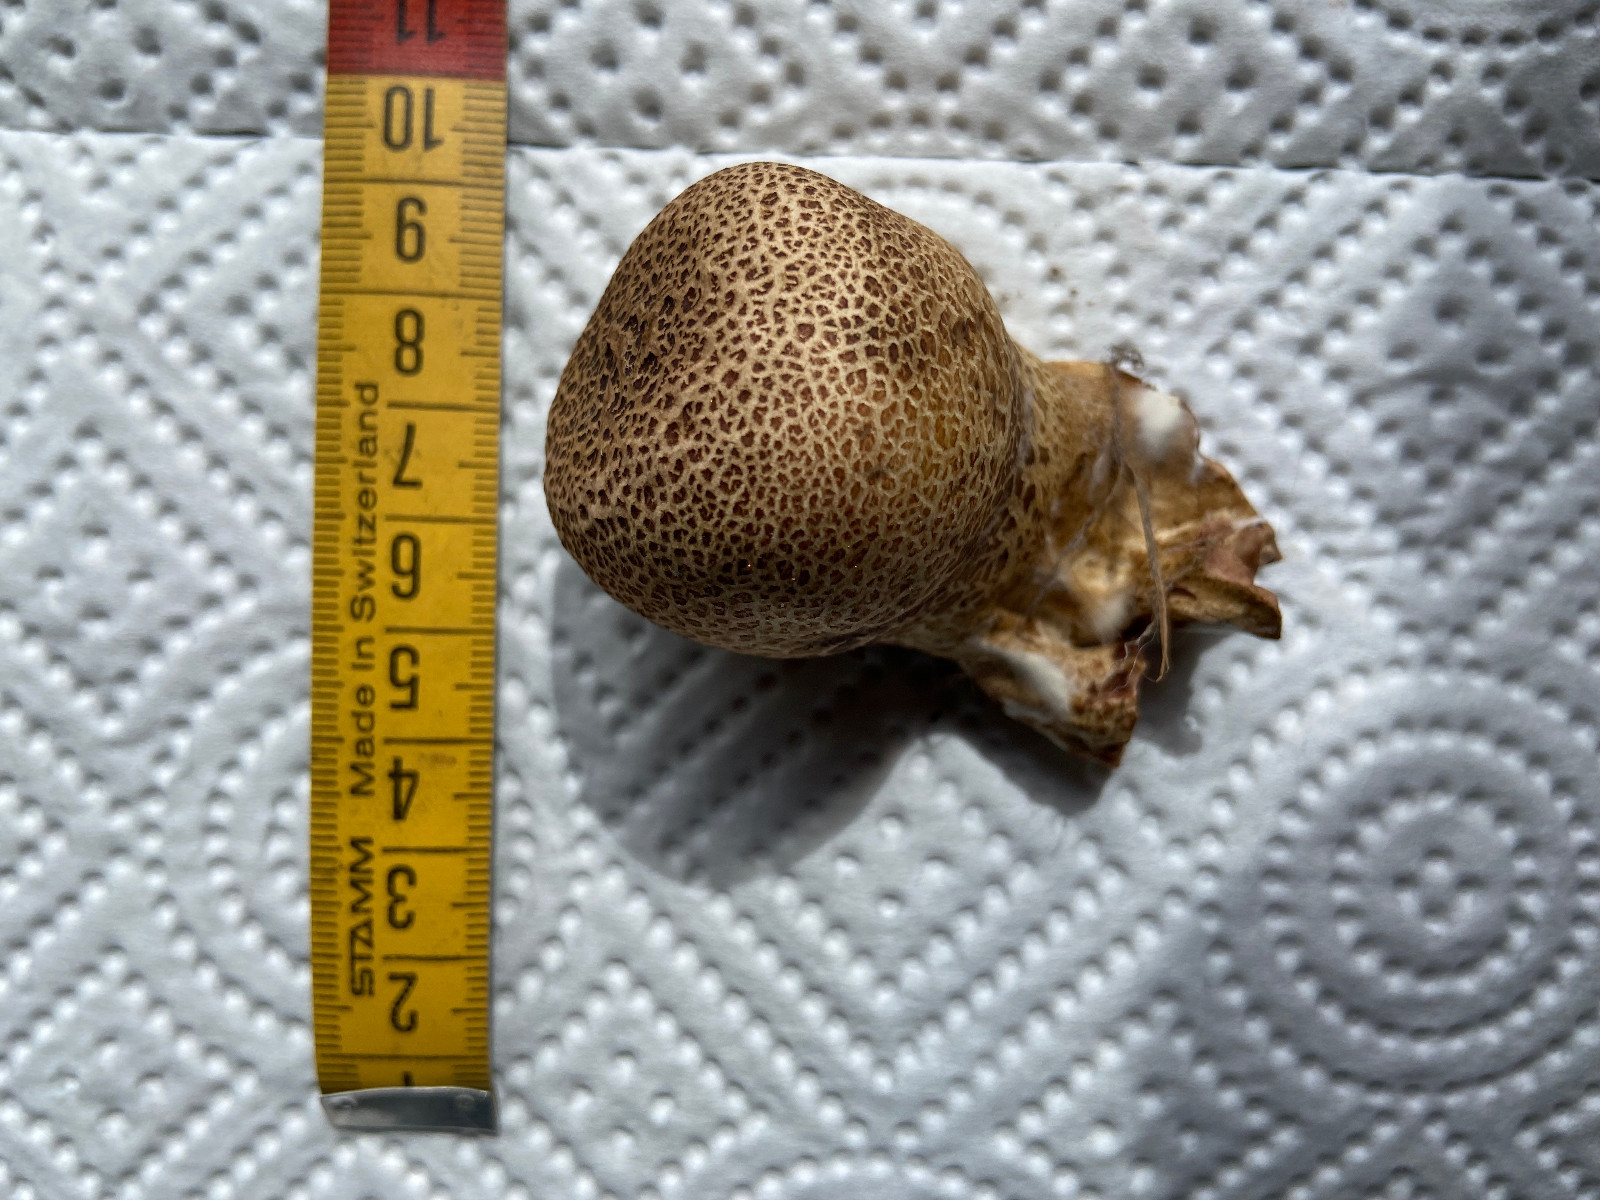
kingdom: Fungi
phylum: Basidiomycota
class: Agaricomycetes
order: Boletales
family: Sclerodermataceae
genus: Scleroderma
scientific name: Scleroderma areolatum
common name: plettet bruskbold
